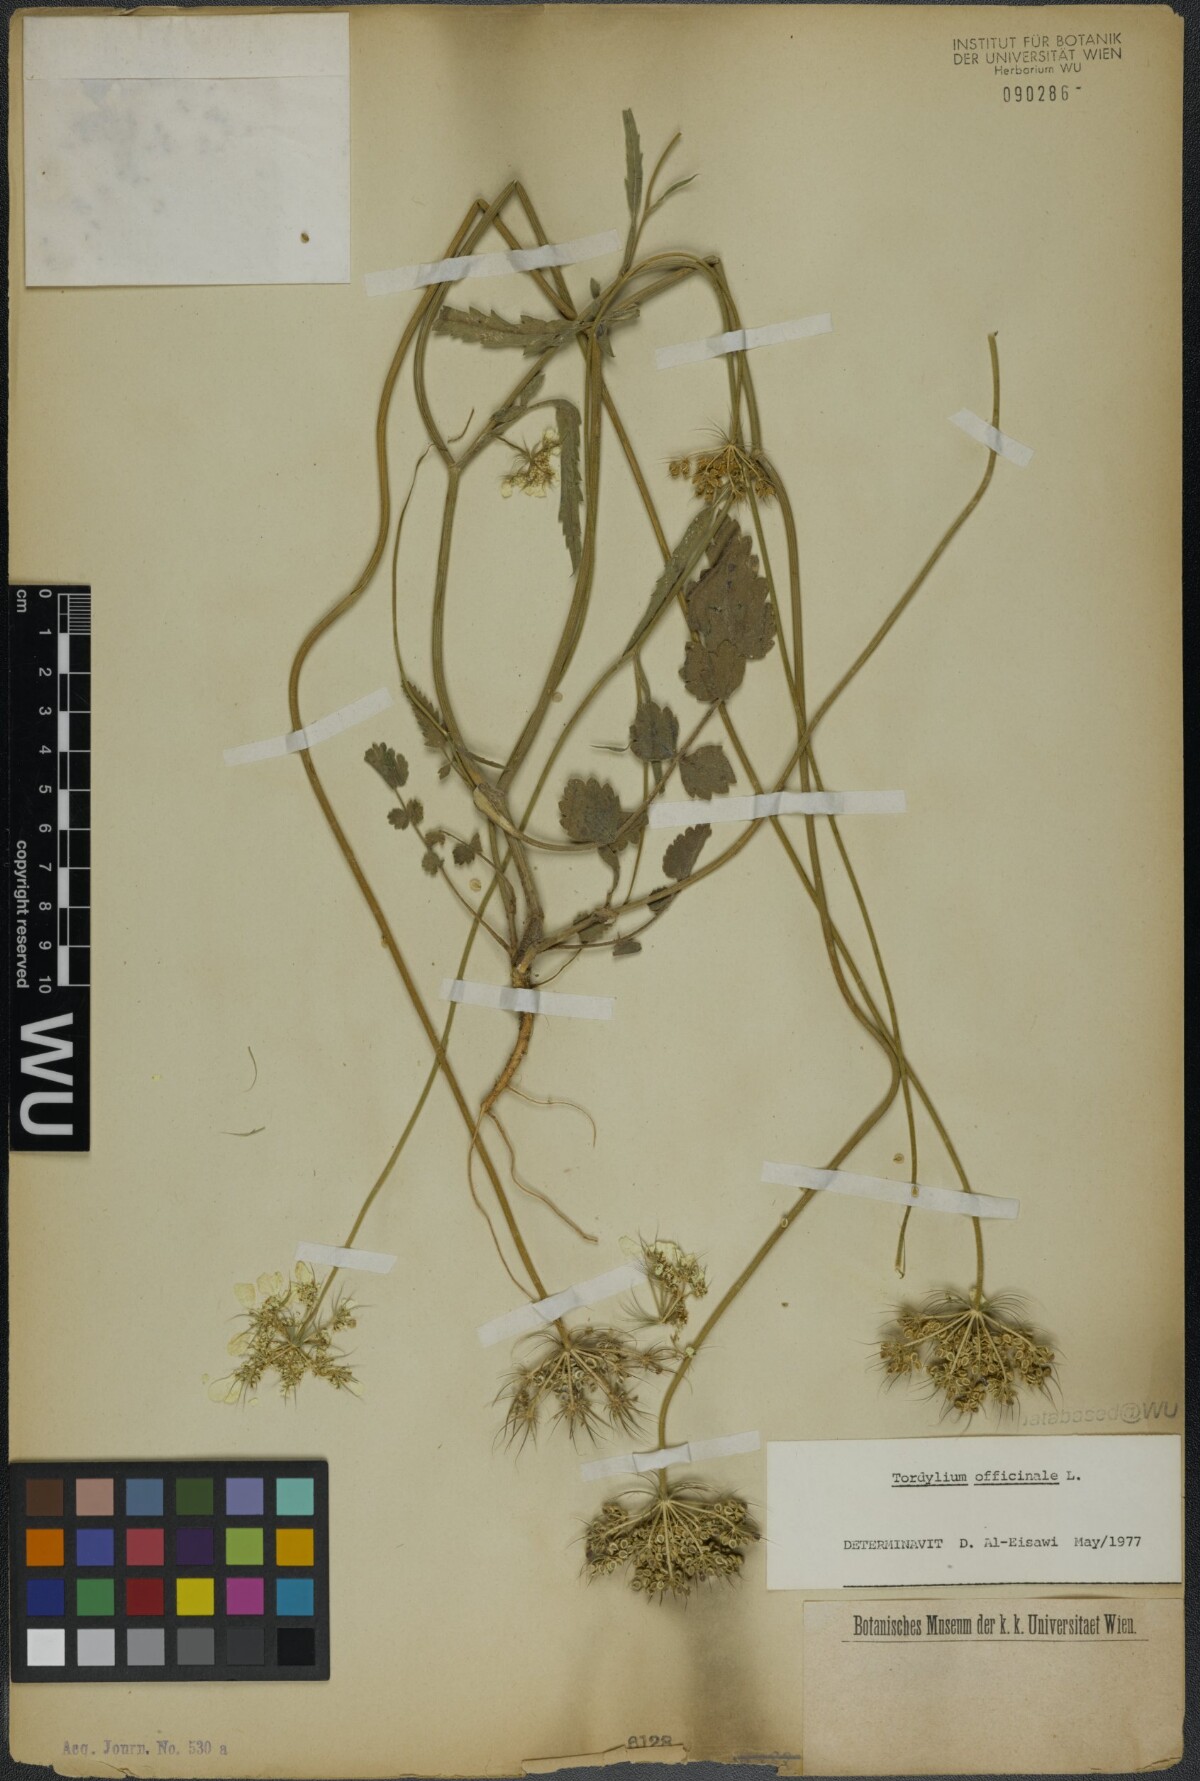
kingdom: Plantae
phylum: Tracheophyta
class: Magnoliopsida
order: Apiales
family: Apiaceae
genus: Tordylium
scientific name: Tordylium officinale
